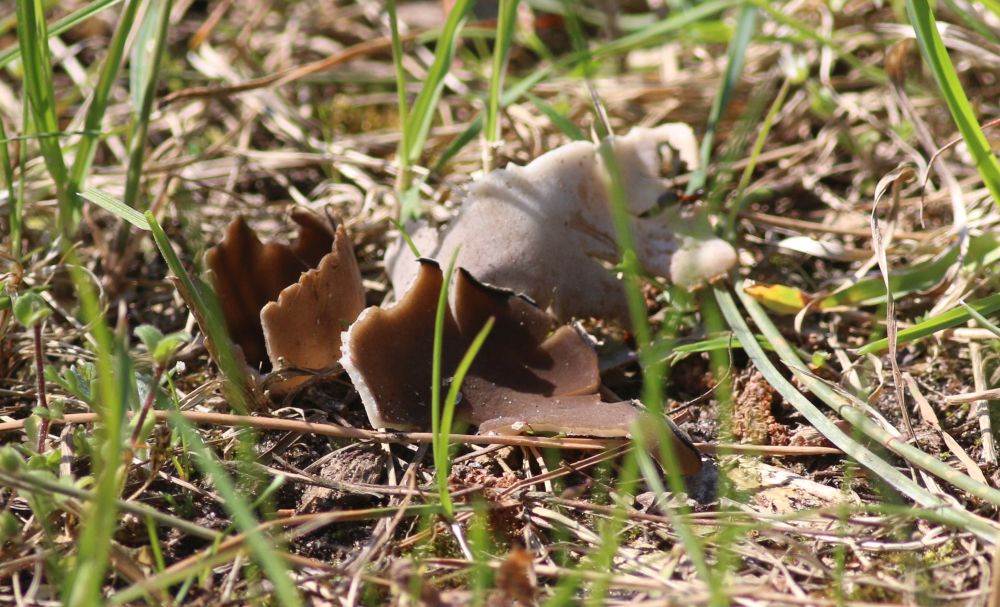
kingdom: Fungi
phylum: Ascomycota
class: Pezizomycetes
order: Pezizales
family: Helvellaceae
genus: Dissingia
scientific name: Dissingia leucomelaena
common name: sorthvid foldhat
